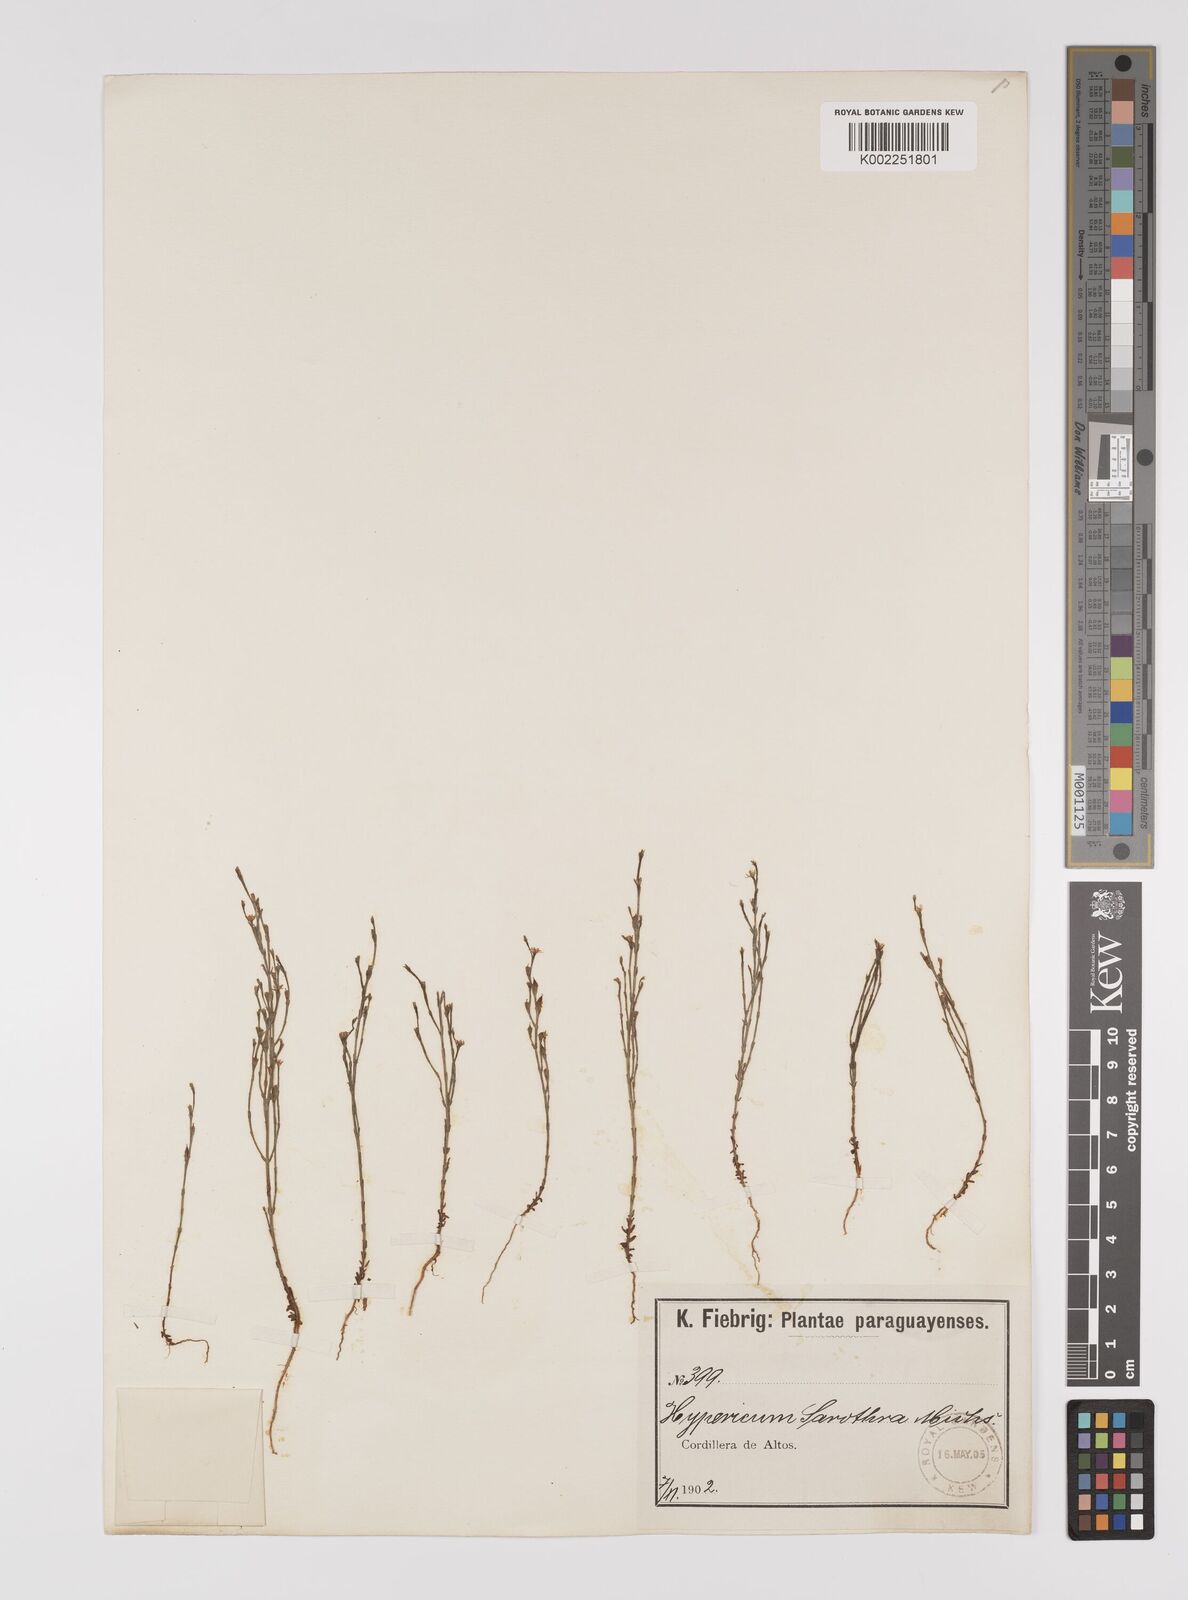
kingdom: Plantae
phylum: Tracheophyta
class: Magnoliopsida
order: Malpighiales
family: Hypericaceae
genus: Hypericum
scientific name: Hypericum gentianoides
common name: Gentian-leaved st. john's-wort
